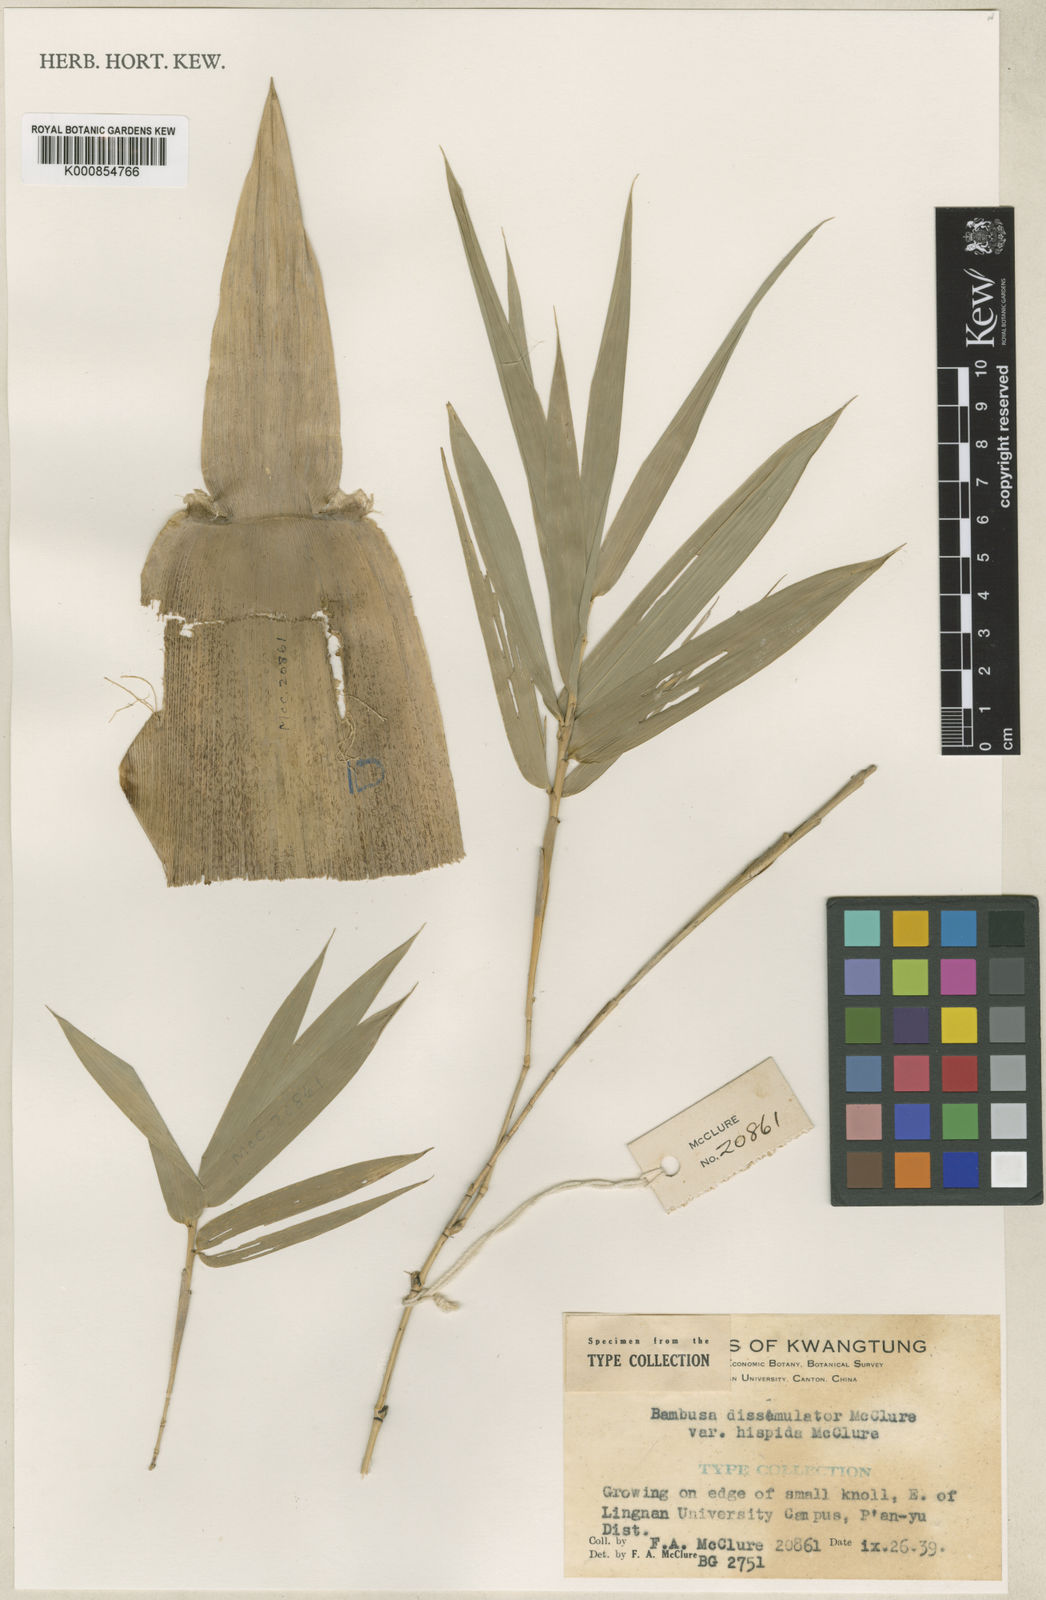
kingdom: Plantae
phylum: Tracheophyta
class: Liliopsida
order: Poales
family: Poaceae
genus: Bambusa
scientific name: Bambusa dissimulator
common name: Muddy bamboo
